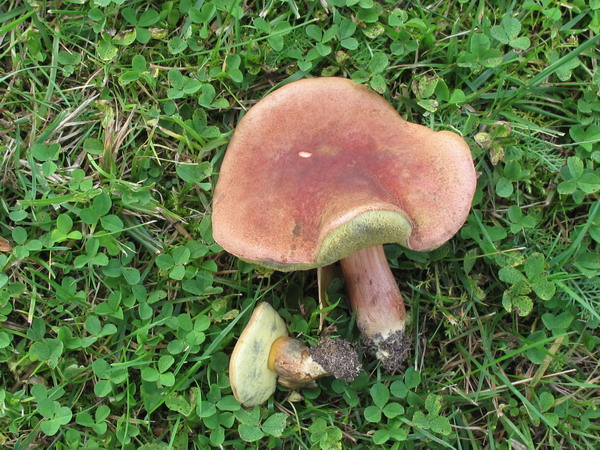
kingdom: Fungi
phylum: Basidiomycota
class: Agaricomycetes
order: Boletales
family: Boletaceae
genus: Hortiboletus
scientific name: Hortiboletus bubalinus
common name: aurora-rørhat
